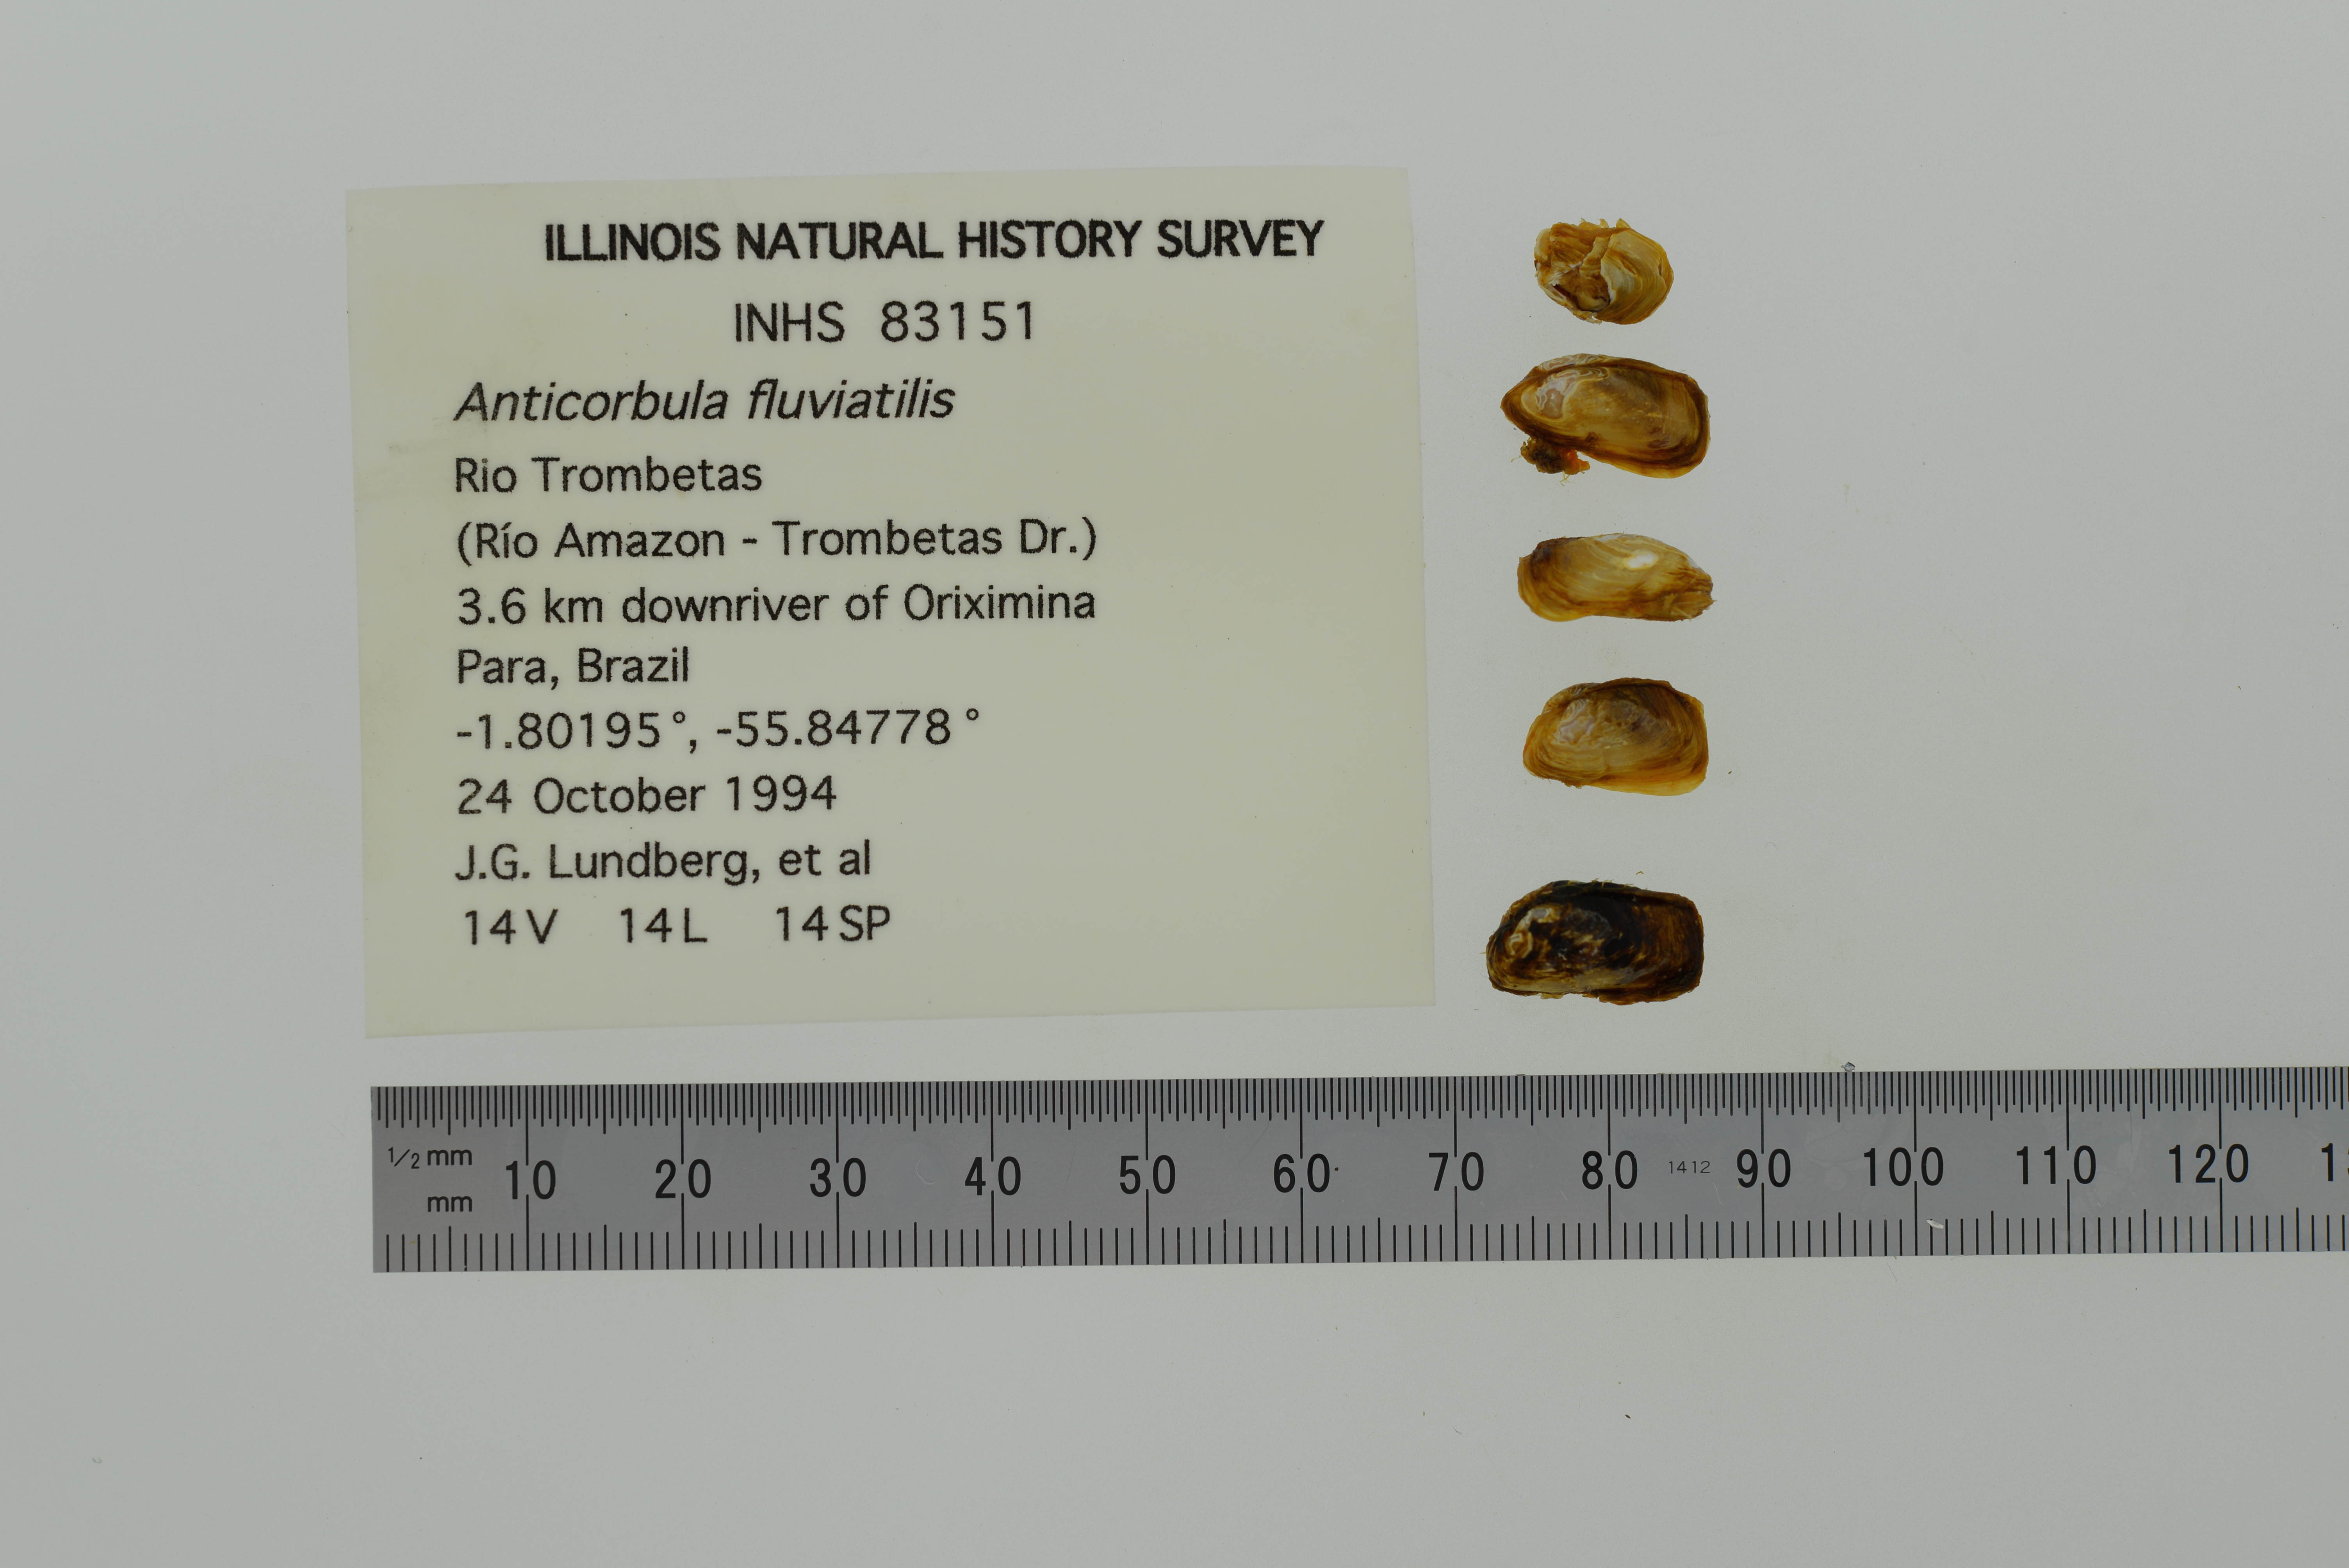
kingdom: Animalia
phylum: Mollusca
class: Bivalvia
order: Myida
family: Corbulidae
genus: Anticorbula
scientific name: Anticorbula fluviatilis
